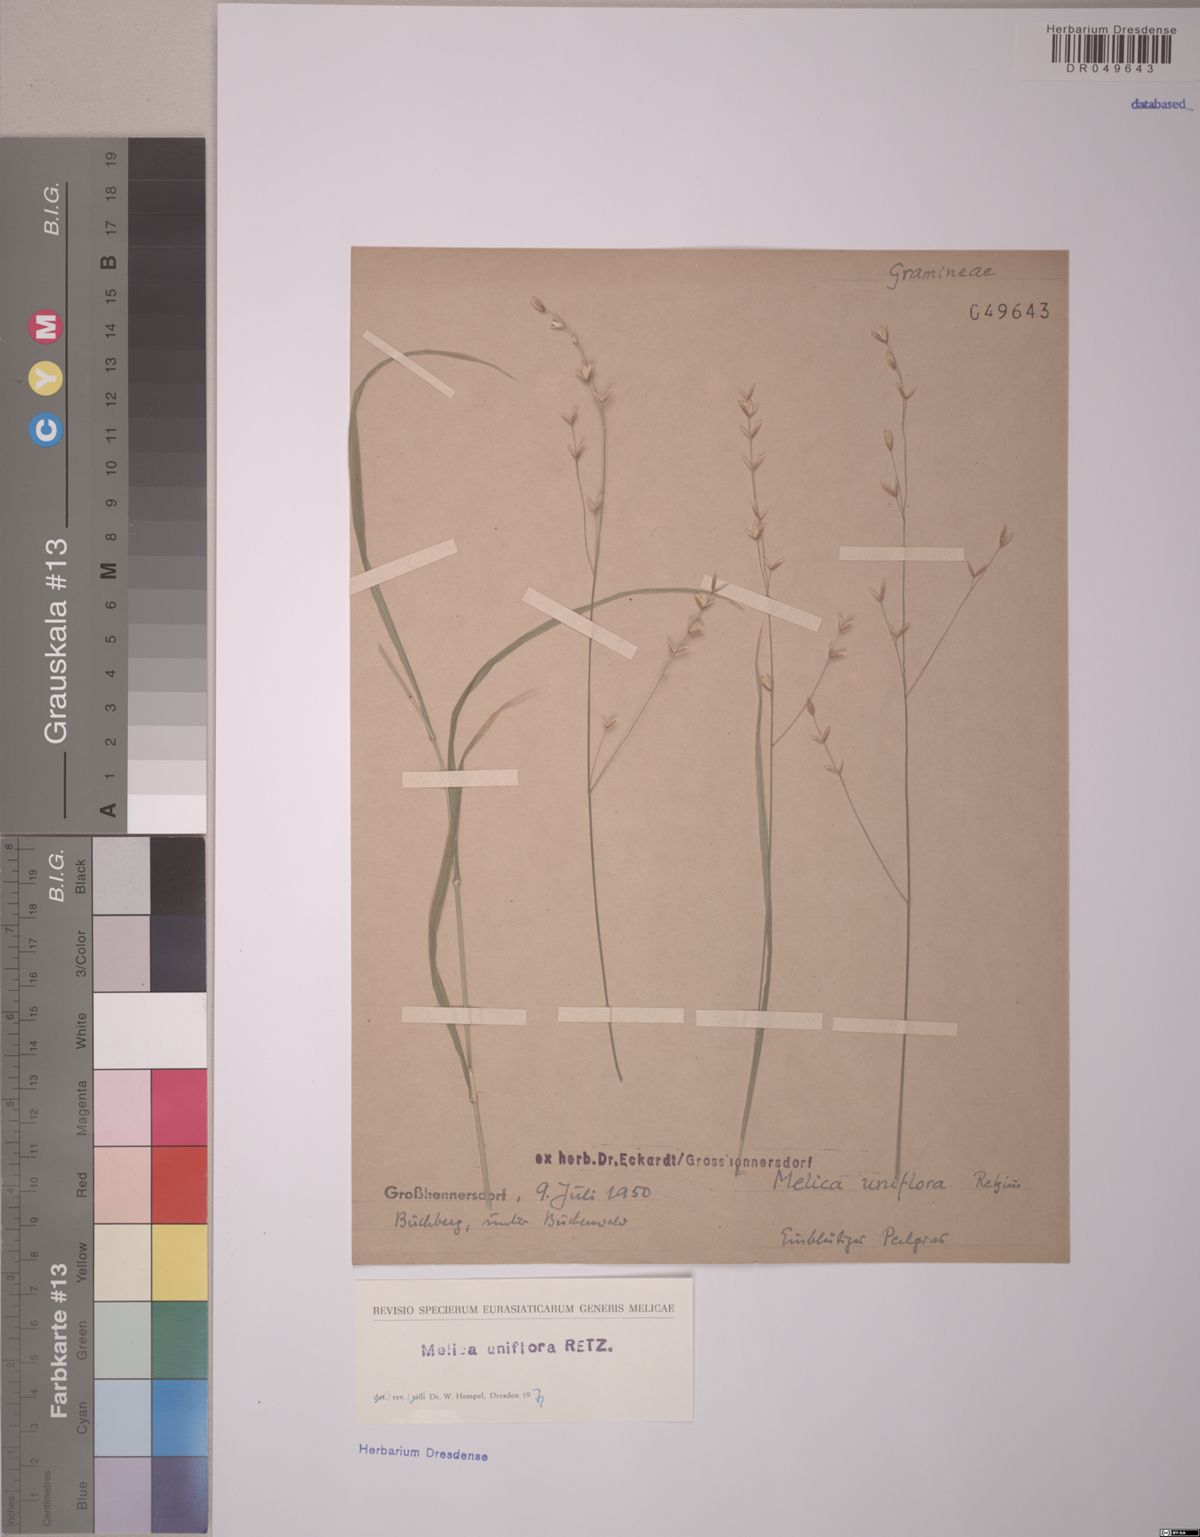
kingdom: Plantae
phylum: Tracheophyta
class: Liliopsida
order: Poales
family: Poaceae
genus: Melica
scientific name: Melica uniflora
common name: Wood melick
